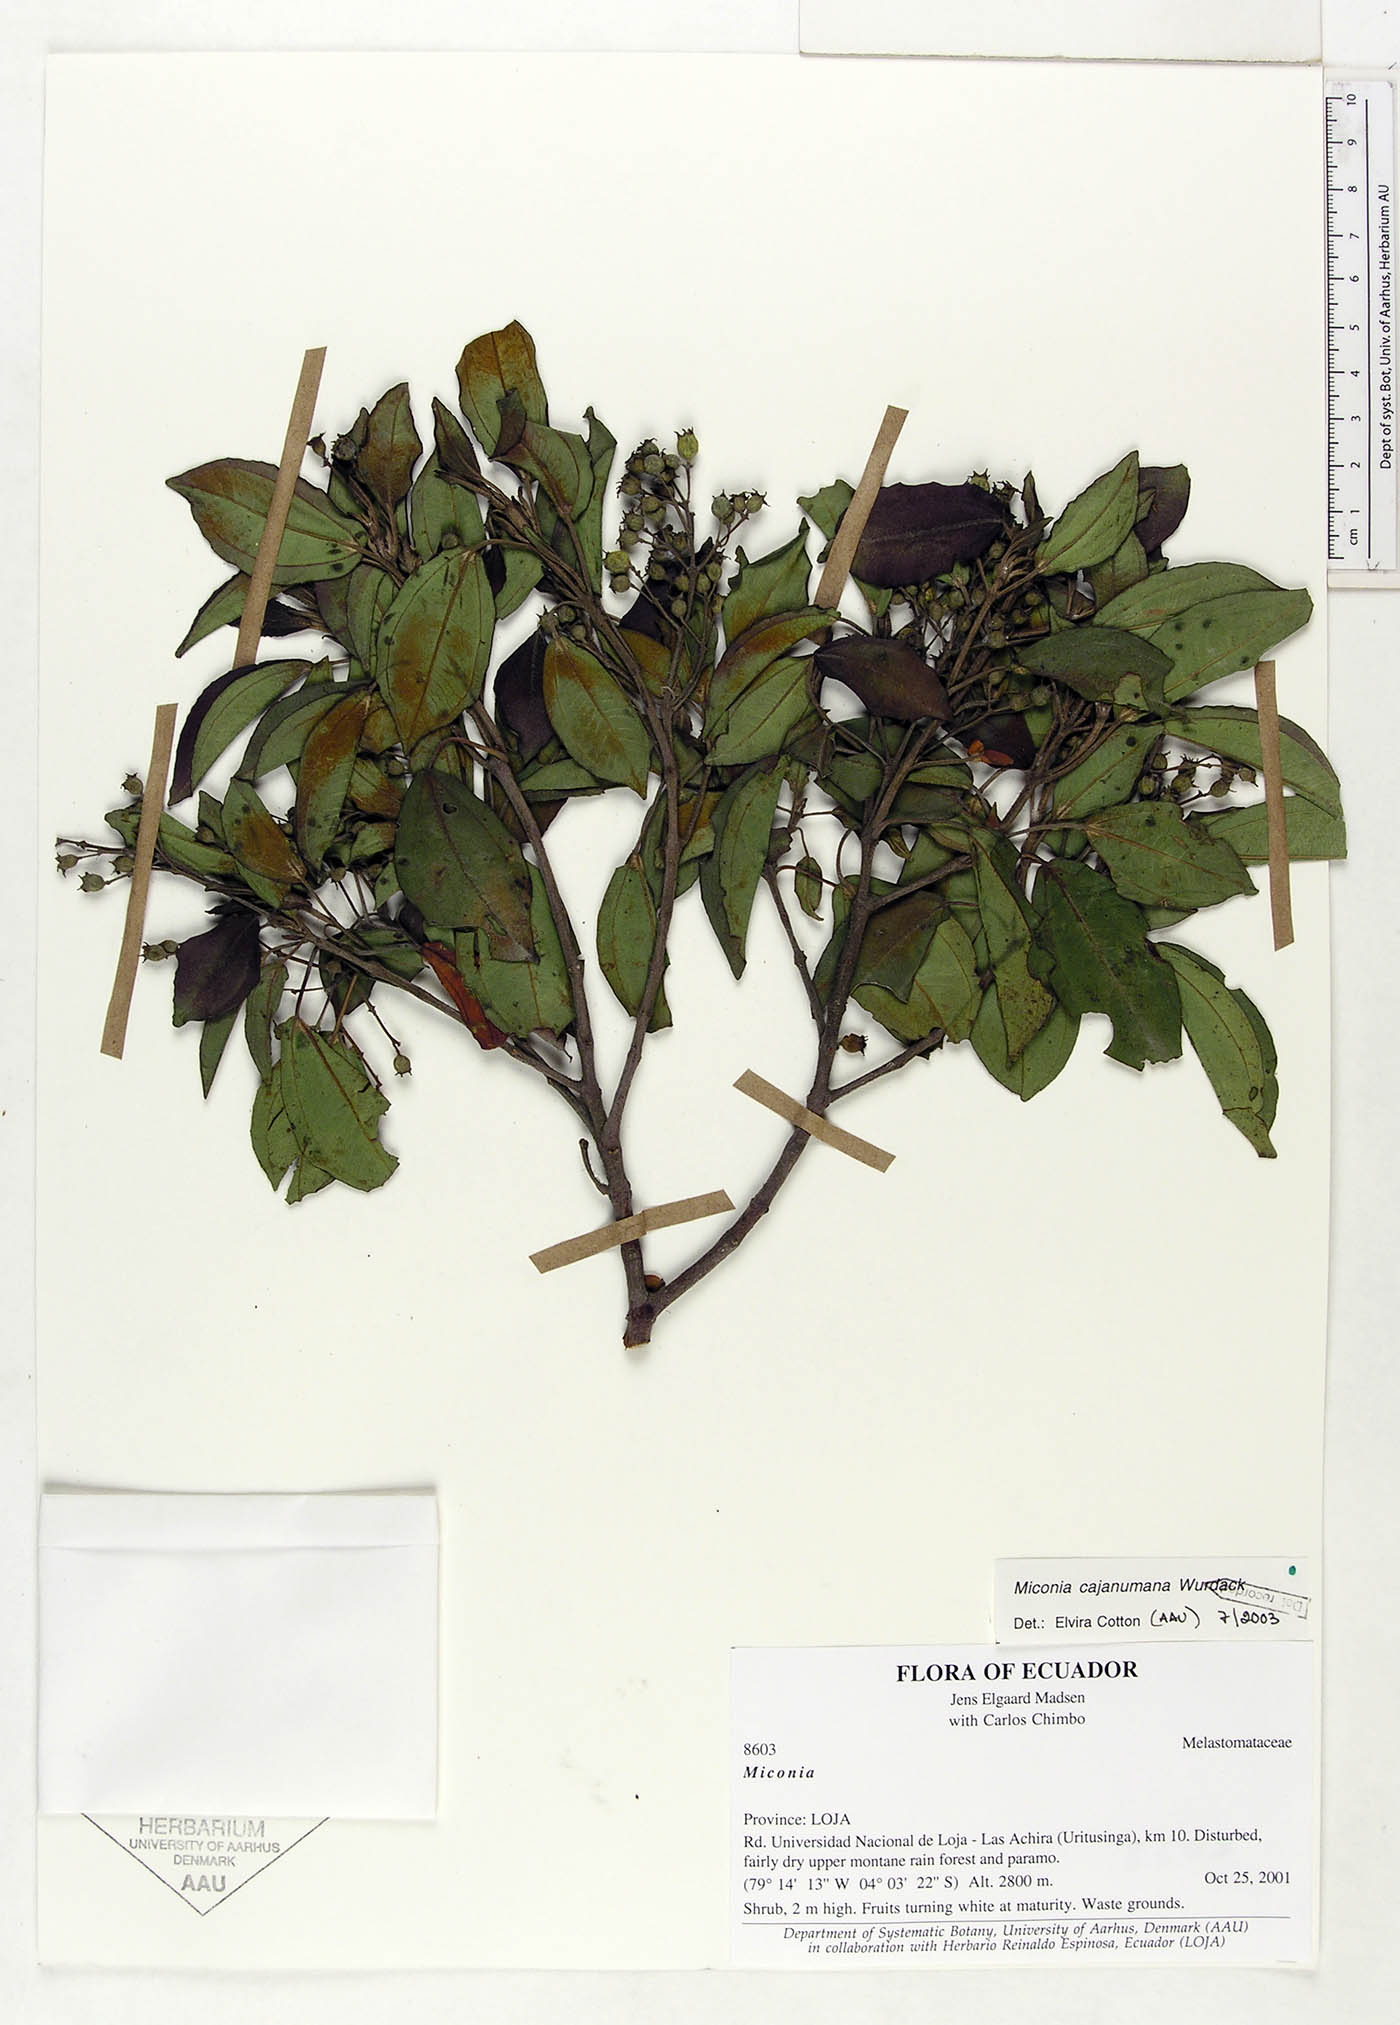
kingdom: Plantae
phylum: Tracheophyta
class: Magnoliopsida
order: Myrtales
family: Melastomataceae
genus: Miconia
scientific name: Miconia cajanumana
